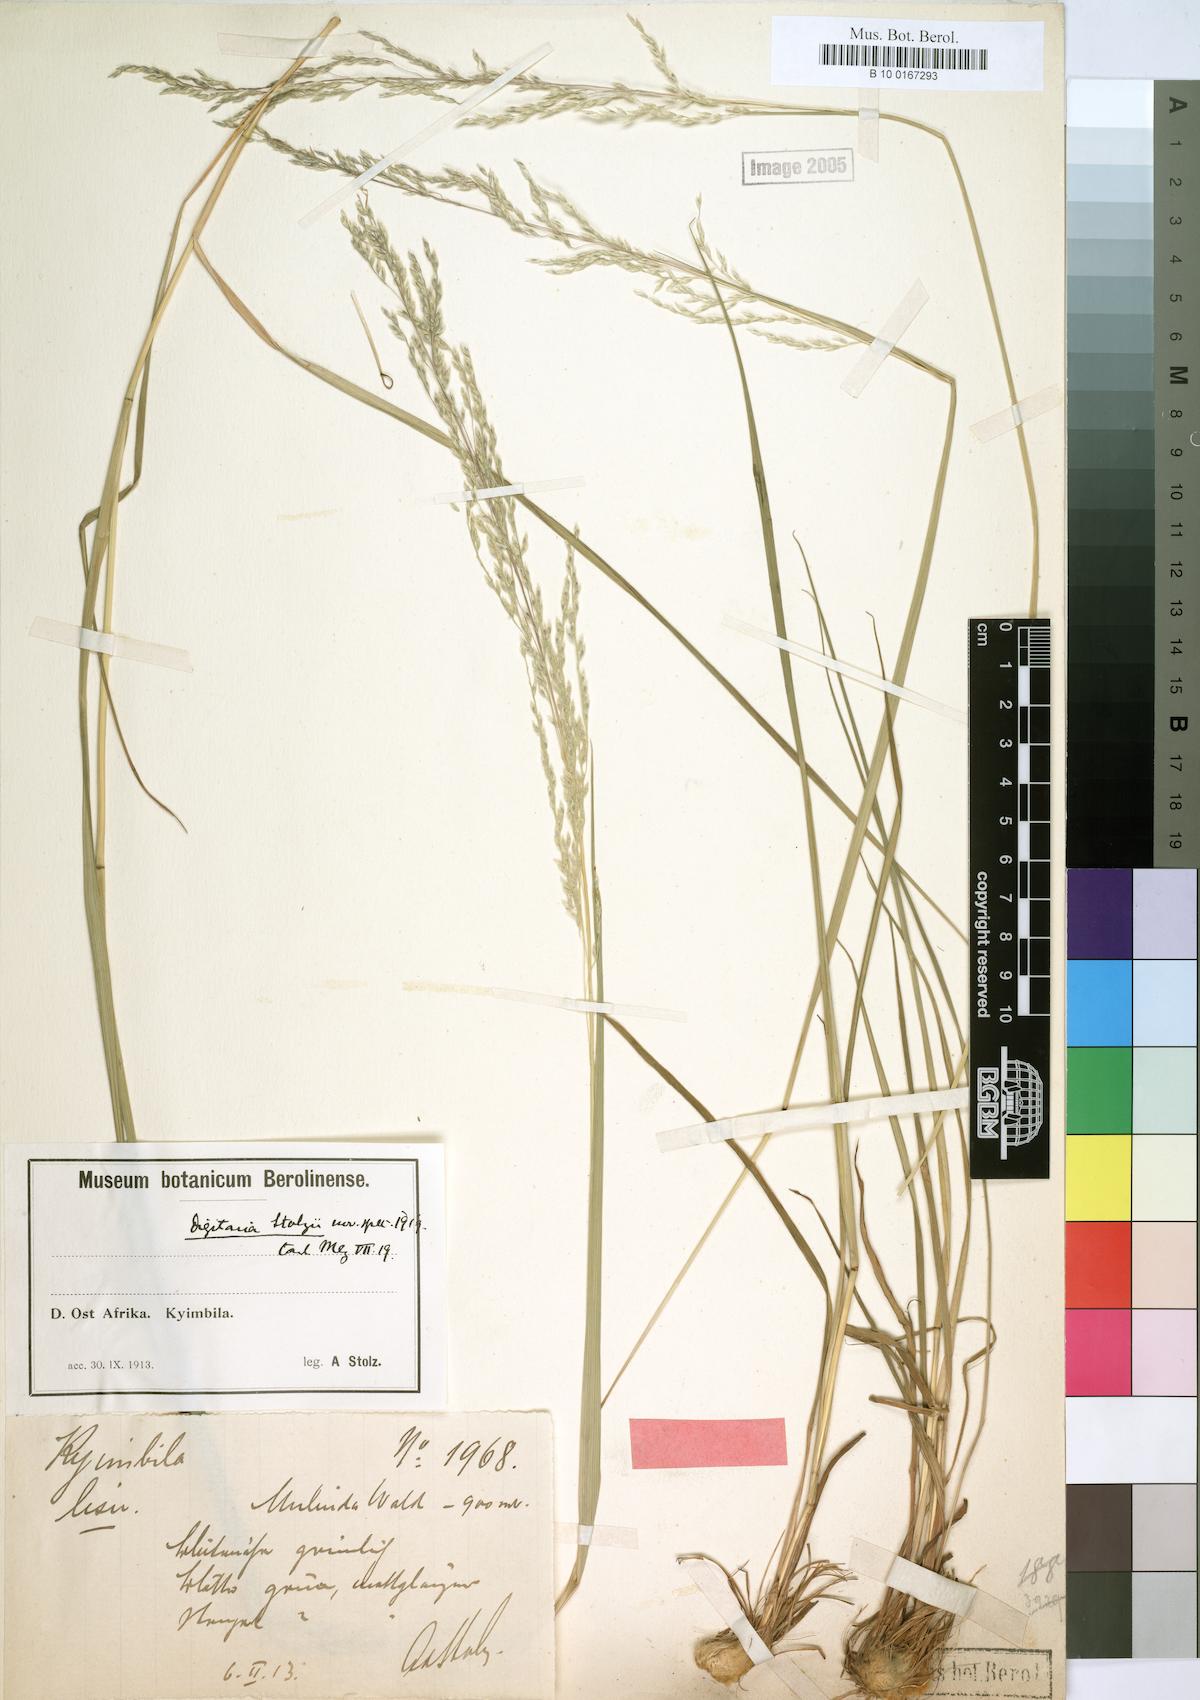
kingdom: Plantae
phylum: Tracheophyta
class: Liliopsida
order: Poales
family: Poaceae
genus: Digitaria
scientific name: Digitaria flaccida
